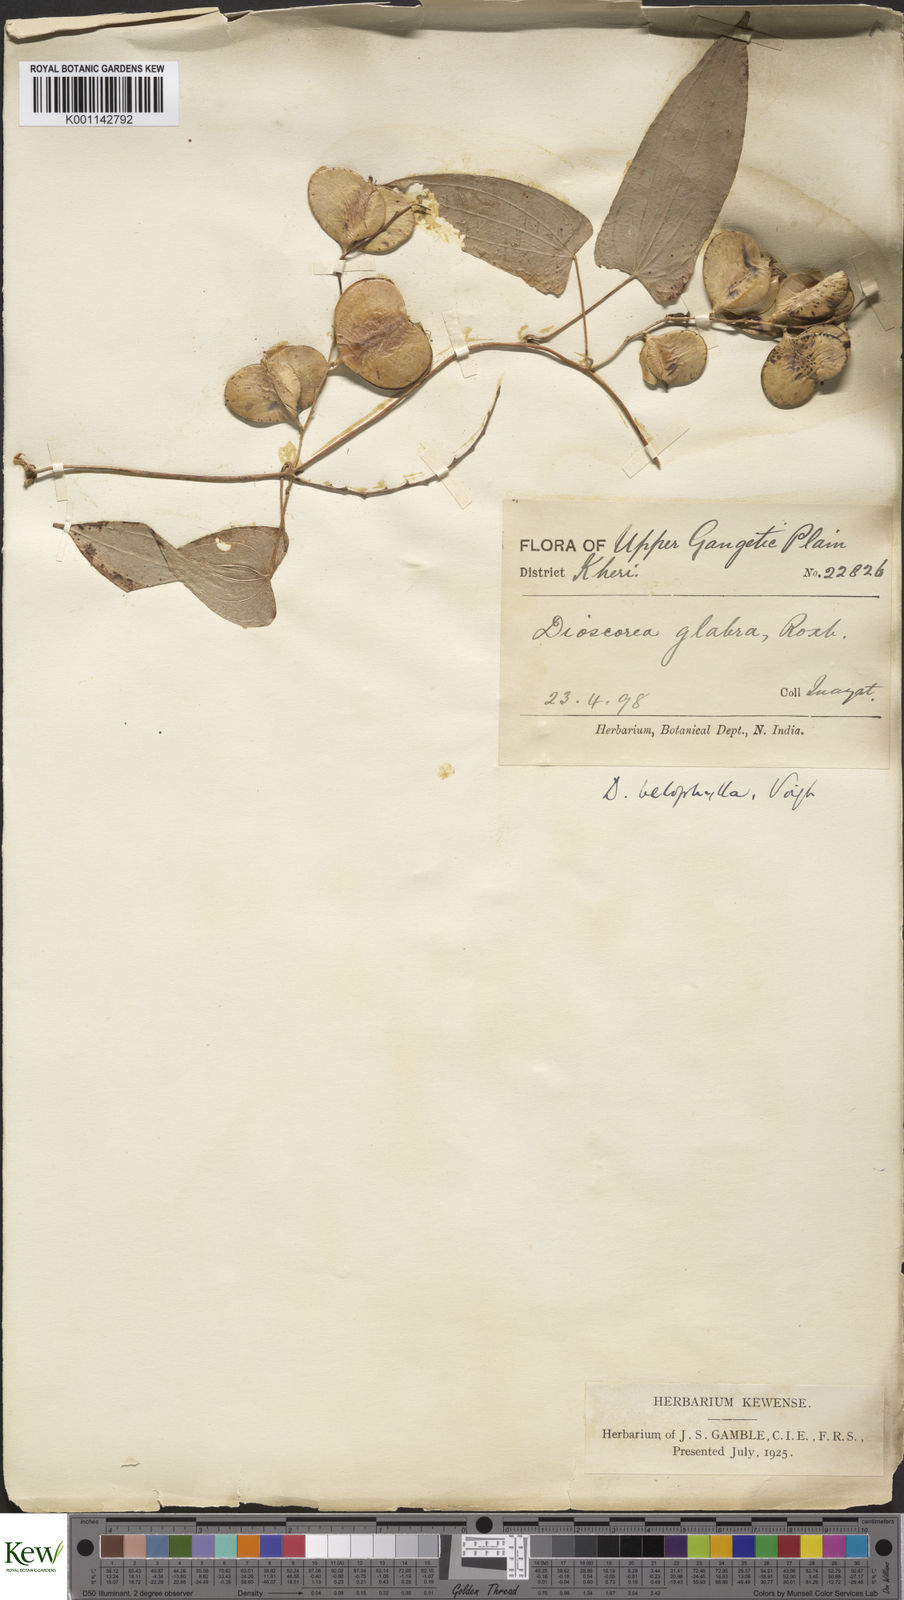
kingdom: Plantae
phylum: Tracheophyta
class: Liliopsida
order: Dioscoreales
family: Dioscoreaceae
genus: Dioscorea
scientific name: Dioscorea belophylla
